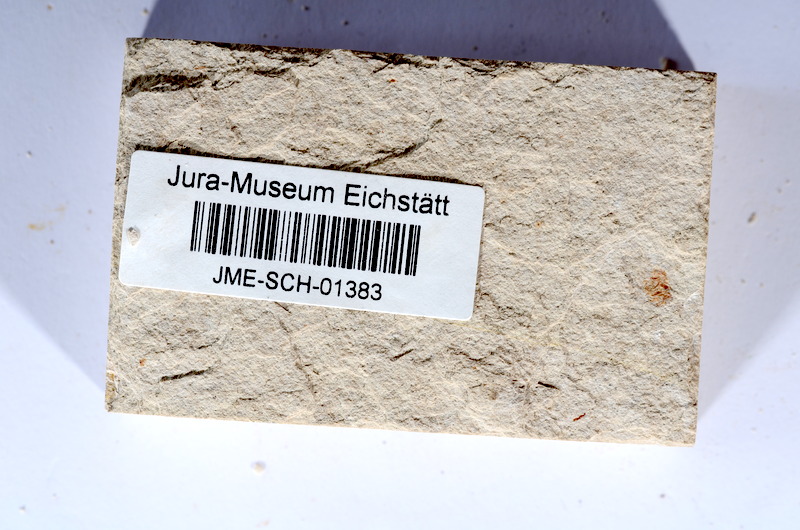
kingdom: Animalia
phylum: Chordata
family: Ascalaboidae
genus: Tharsis
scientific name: Tharsis dubius
